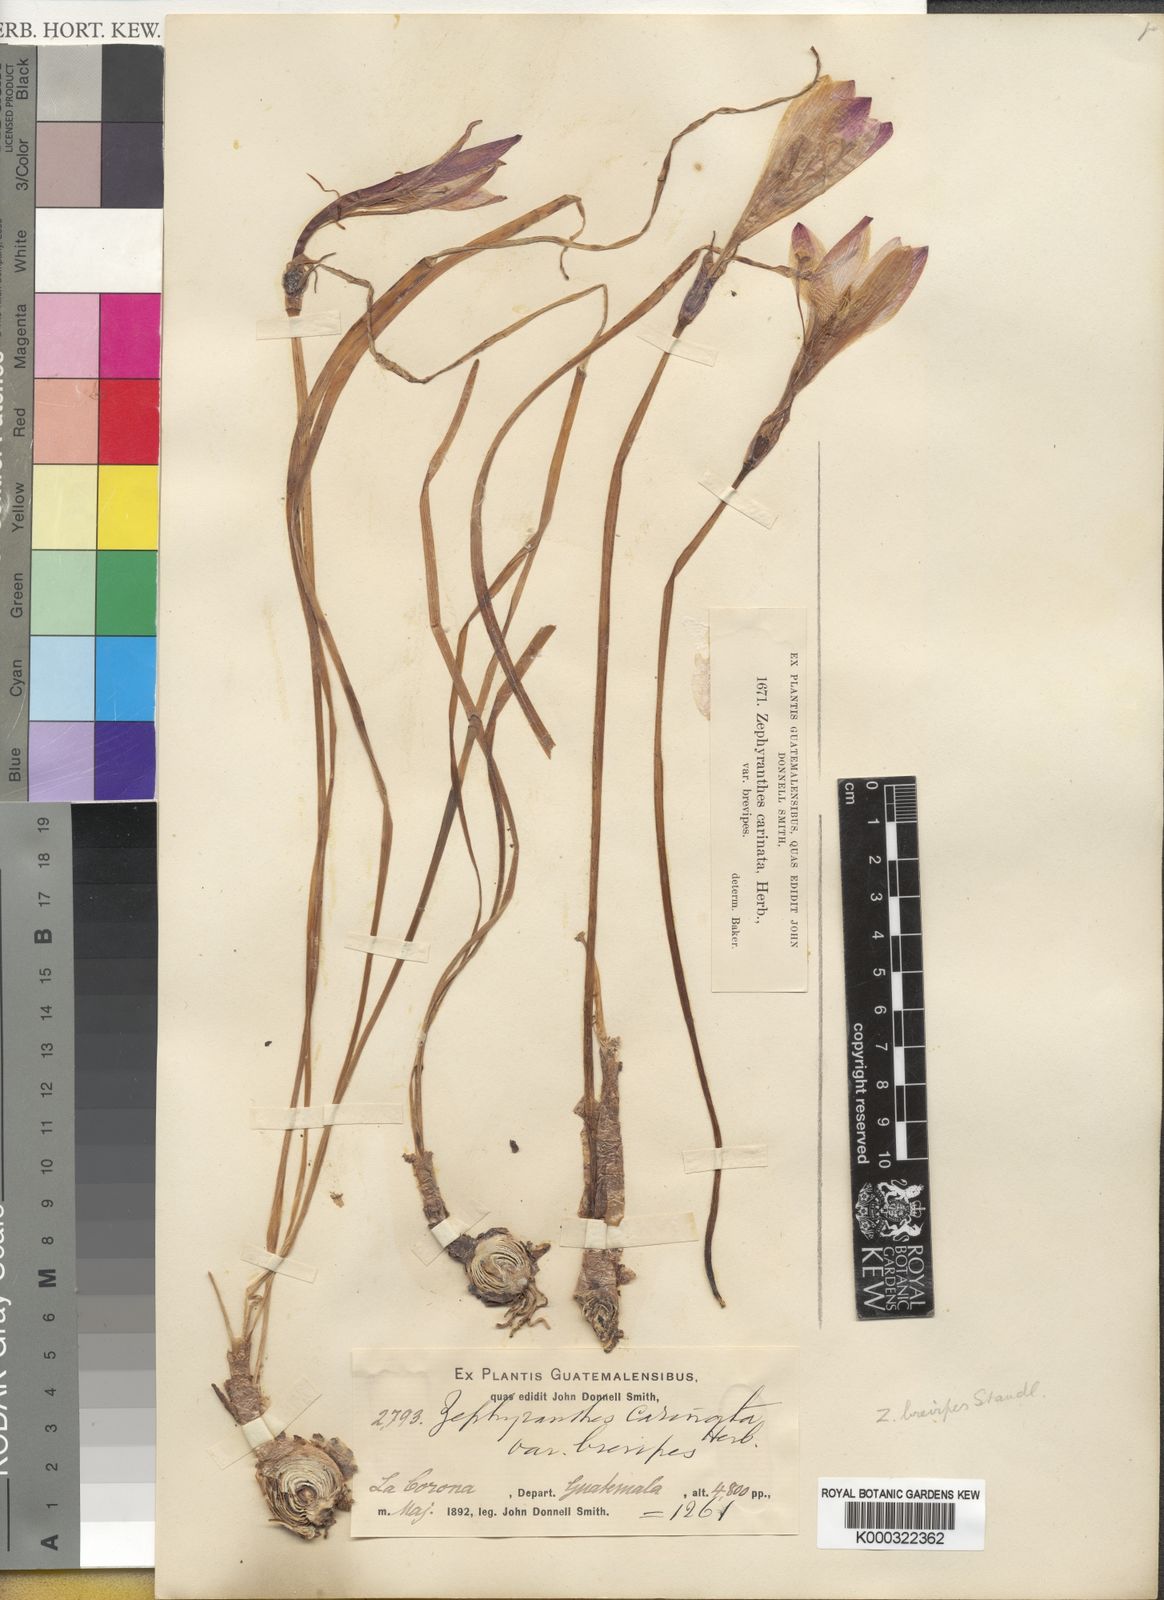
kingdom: Plantae
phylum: Tracheophyta
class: Liliopsida
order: Asparagales
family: Amaryllidaceae
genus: Zephyranthes
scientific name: Zephyranthes brevipes
